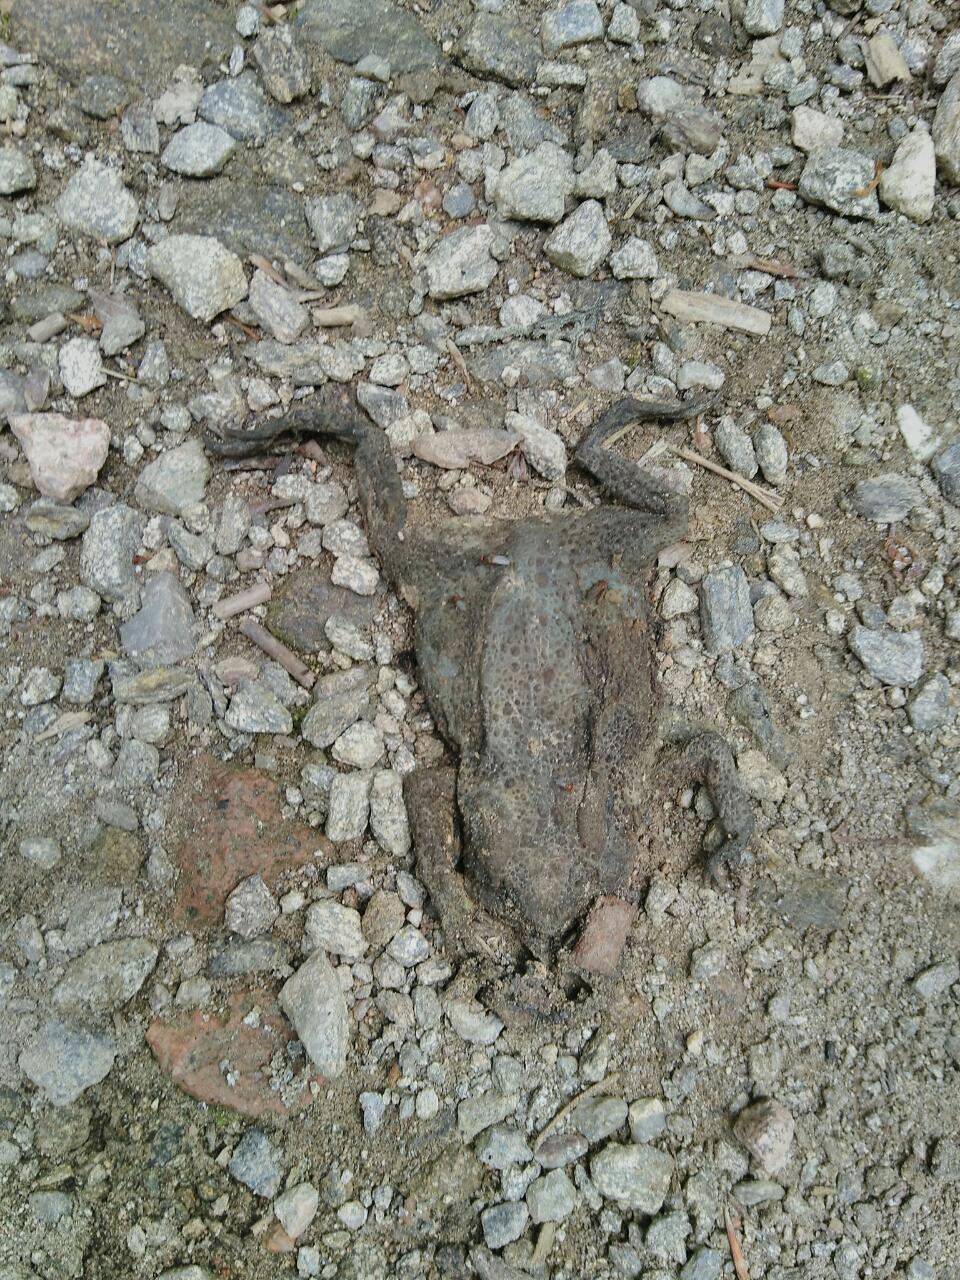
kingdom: Animalia
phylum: Chordata
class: Amphibia
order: Anura
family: Bufonidae
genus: Bufo
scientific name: Bufo bufo
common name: Common toad
